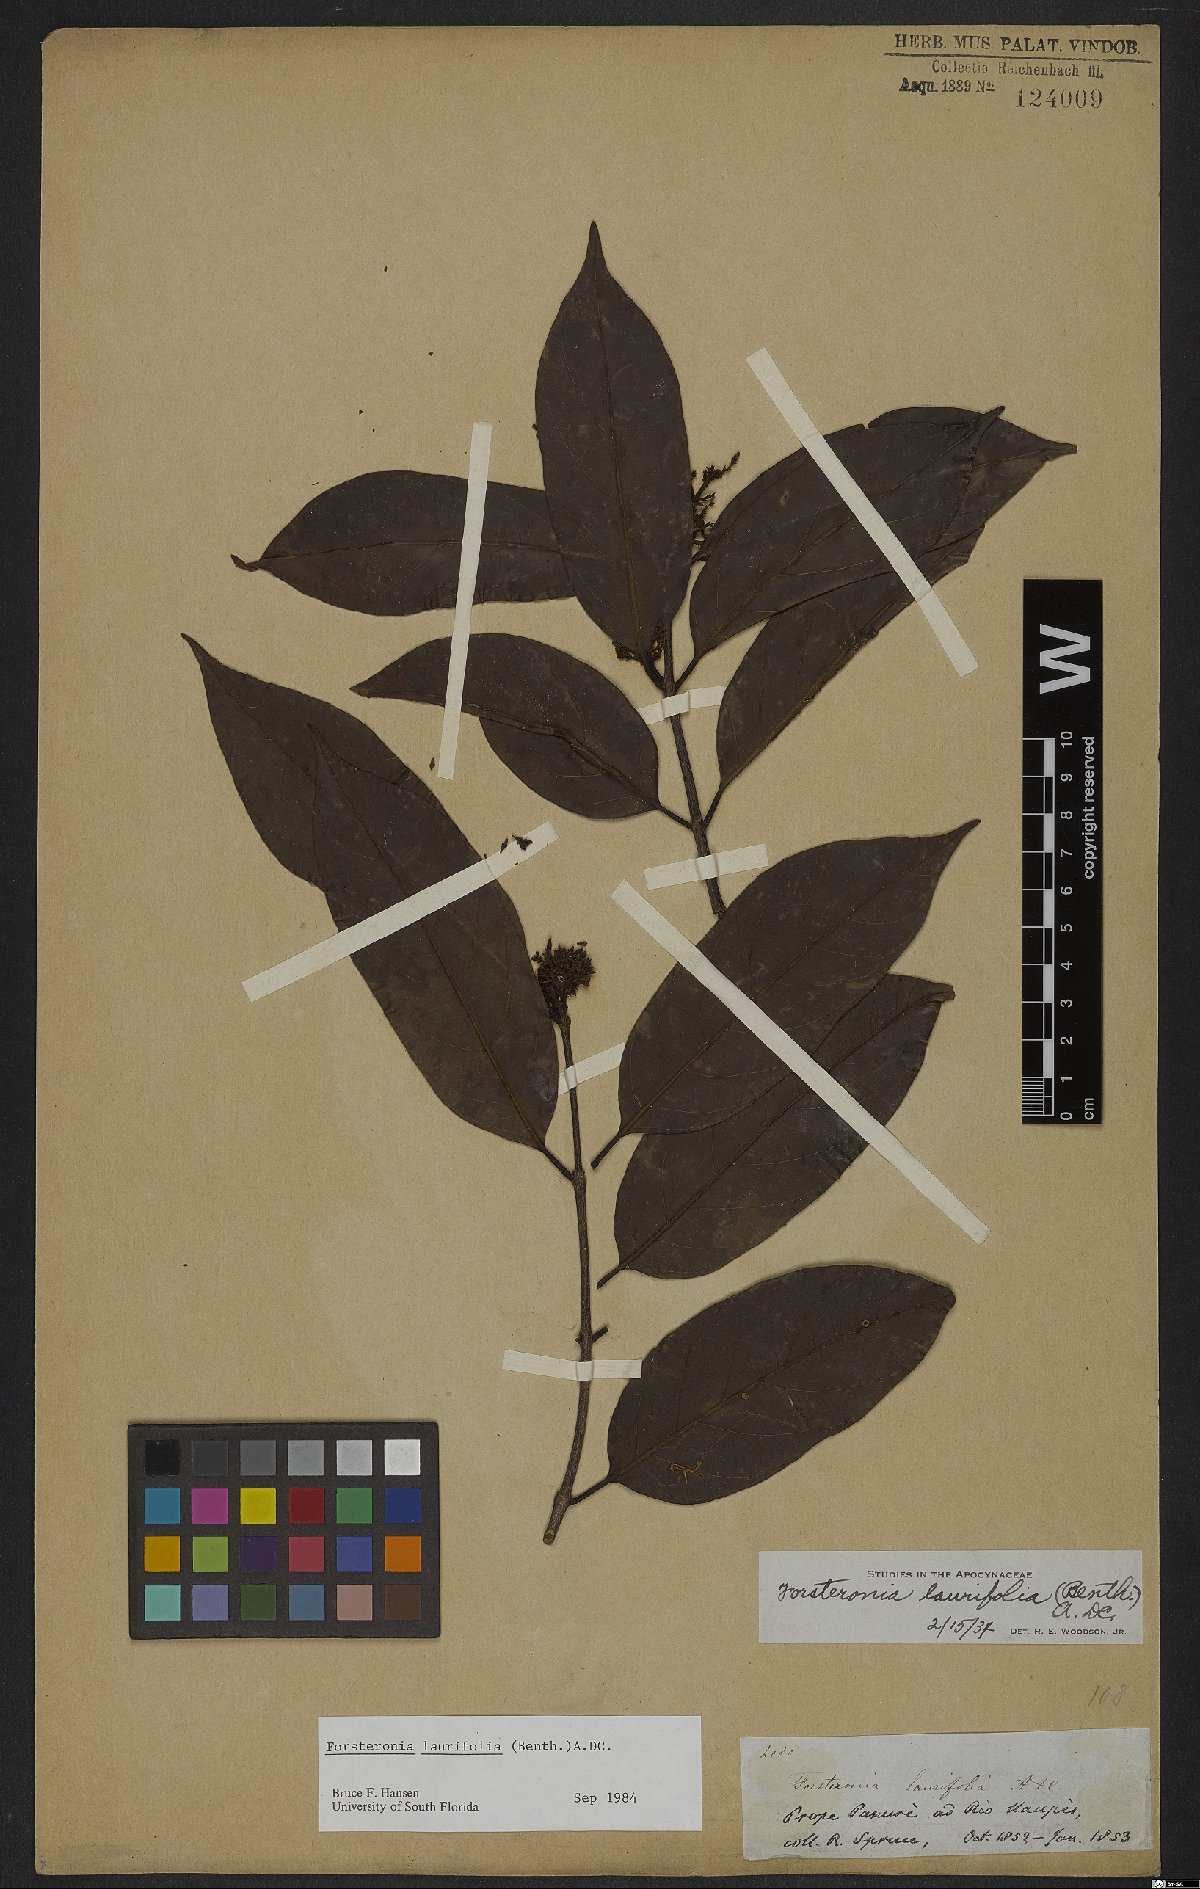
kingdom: Plantae
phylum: Tracheophyta
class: Magnoliopsida
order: Gentianales
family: Apocynaceae
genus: Forsteronia
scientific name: Forsteronia laurifolia
